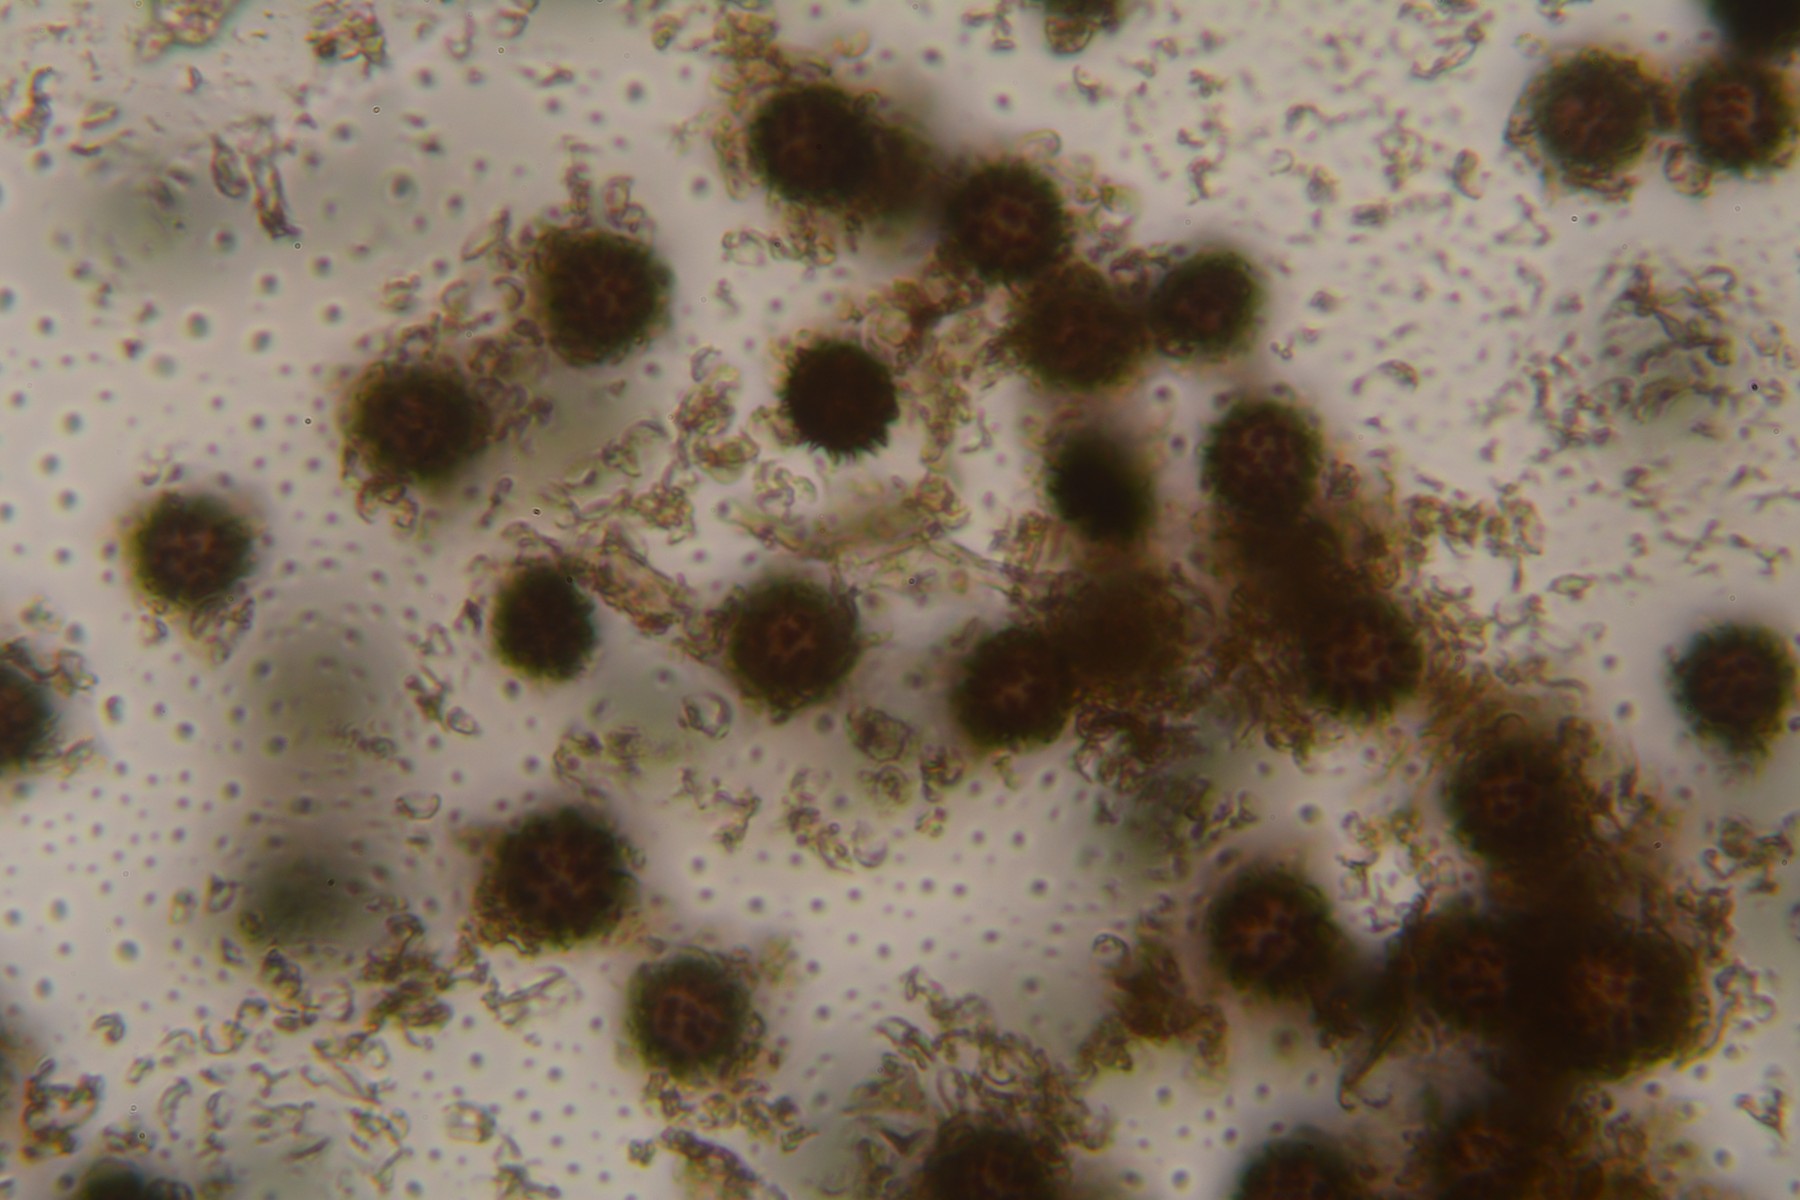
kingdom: Fungi
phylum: Basidiomycota
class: Agaricomycetes
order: Boletales
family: Sclerodermataceae
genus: Scleroderma
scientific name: Scleroderma areolatum
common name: plettet bruskbold
